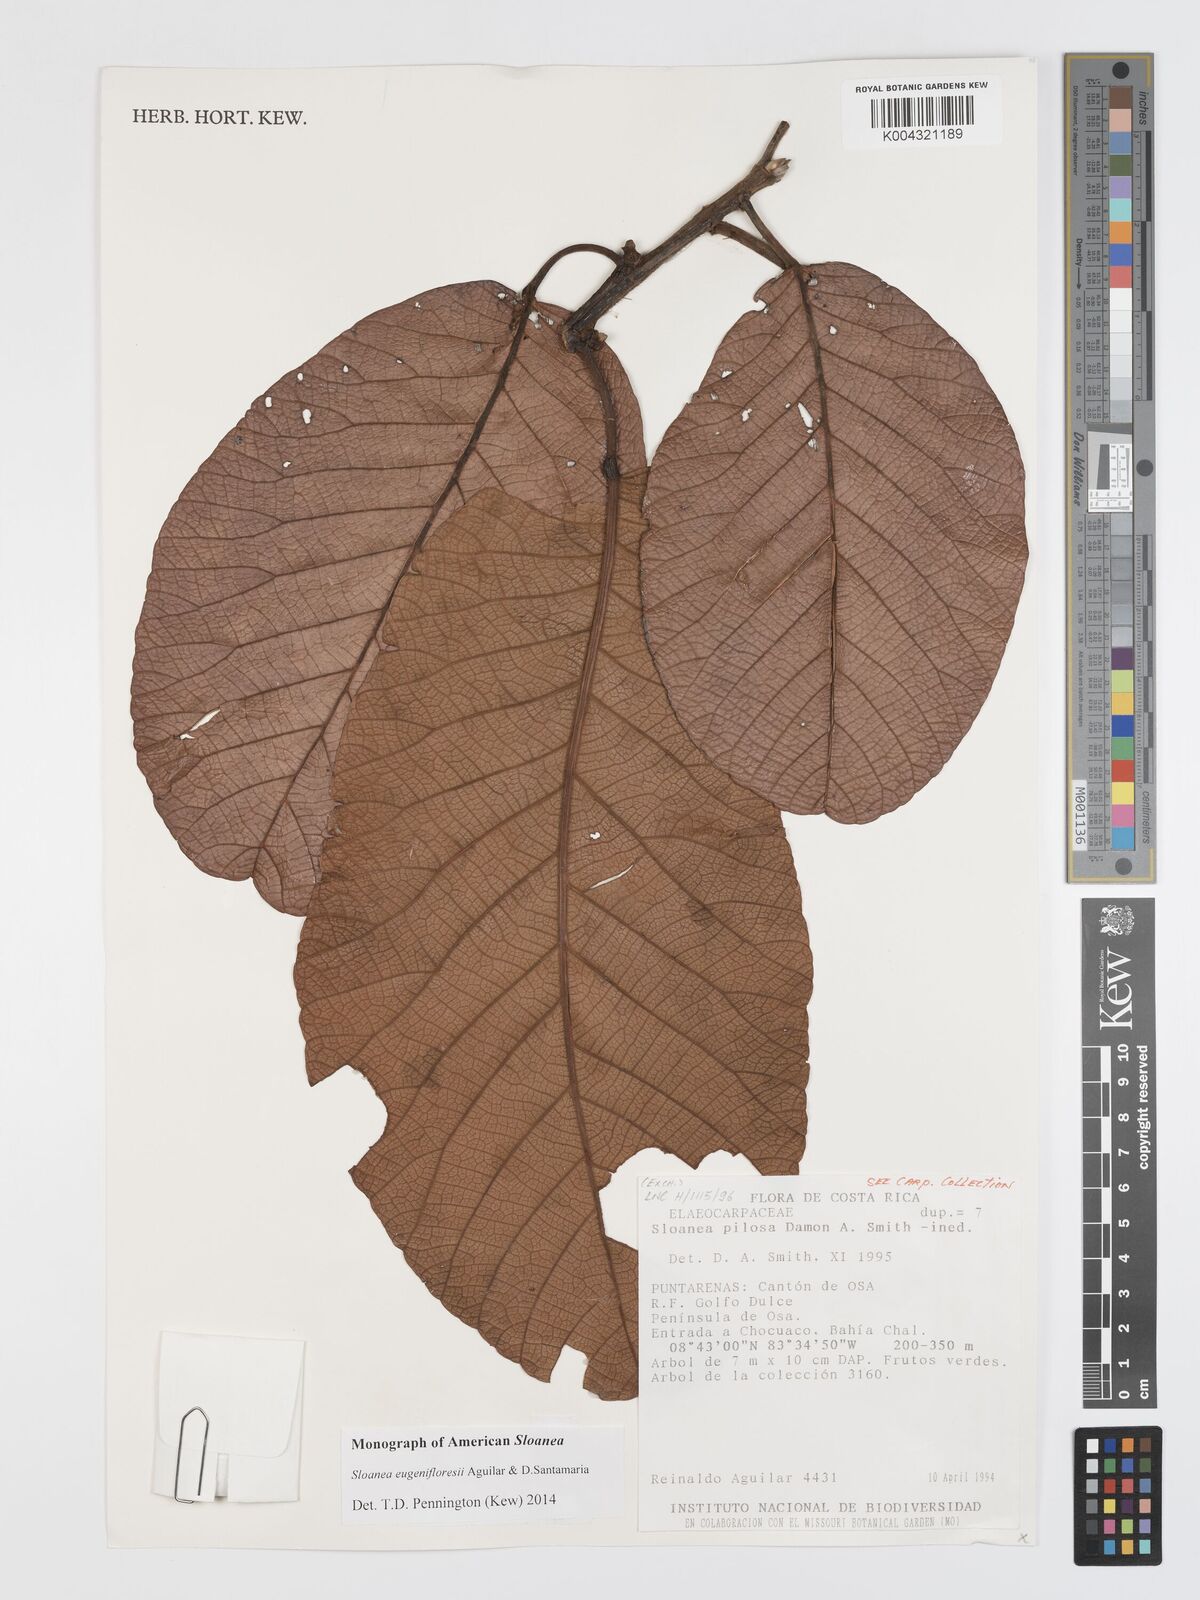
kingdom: Plantae
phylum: Tracheophyta
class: Magnoliopsida
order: Oxalidales
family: Elaeocarpaceae
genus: Sloanea
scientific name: Sloanea eugenifloresiae
